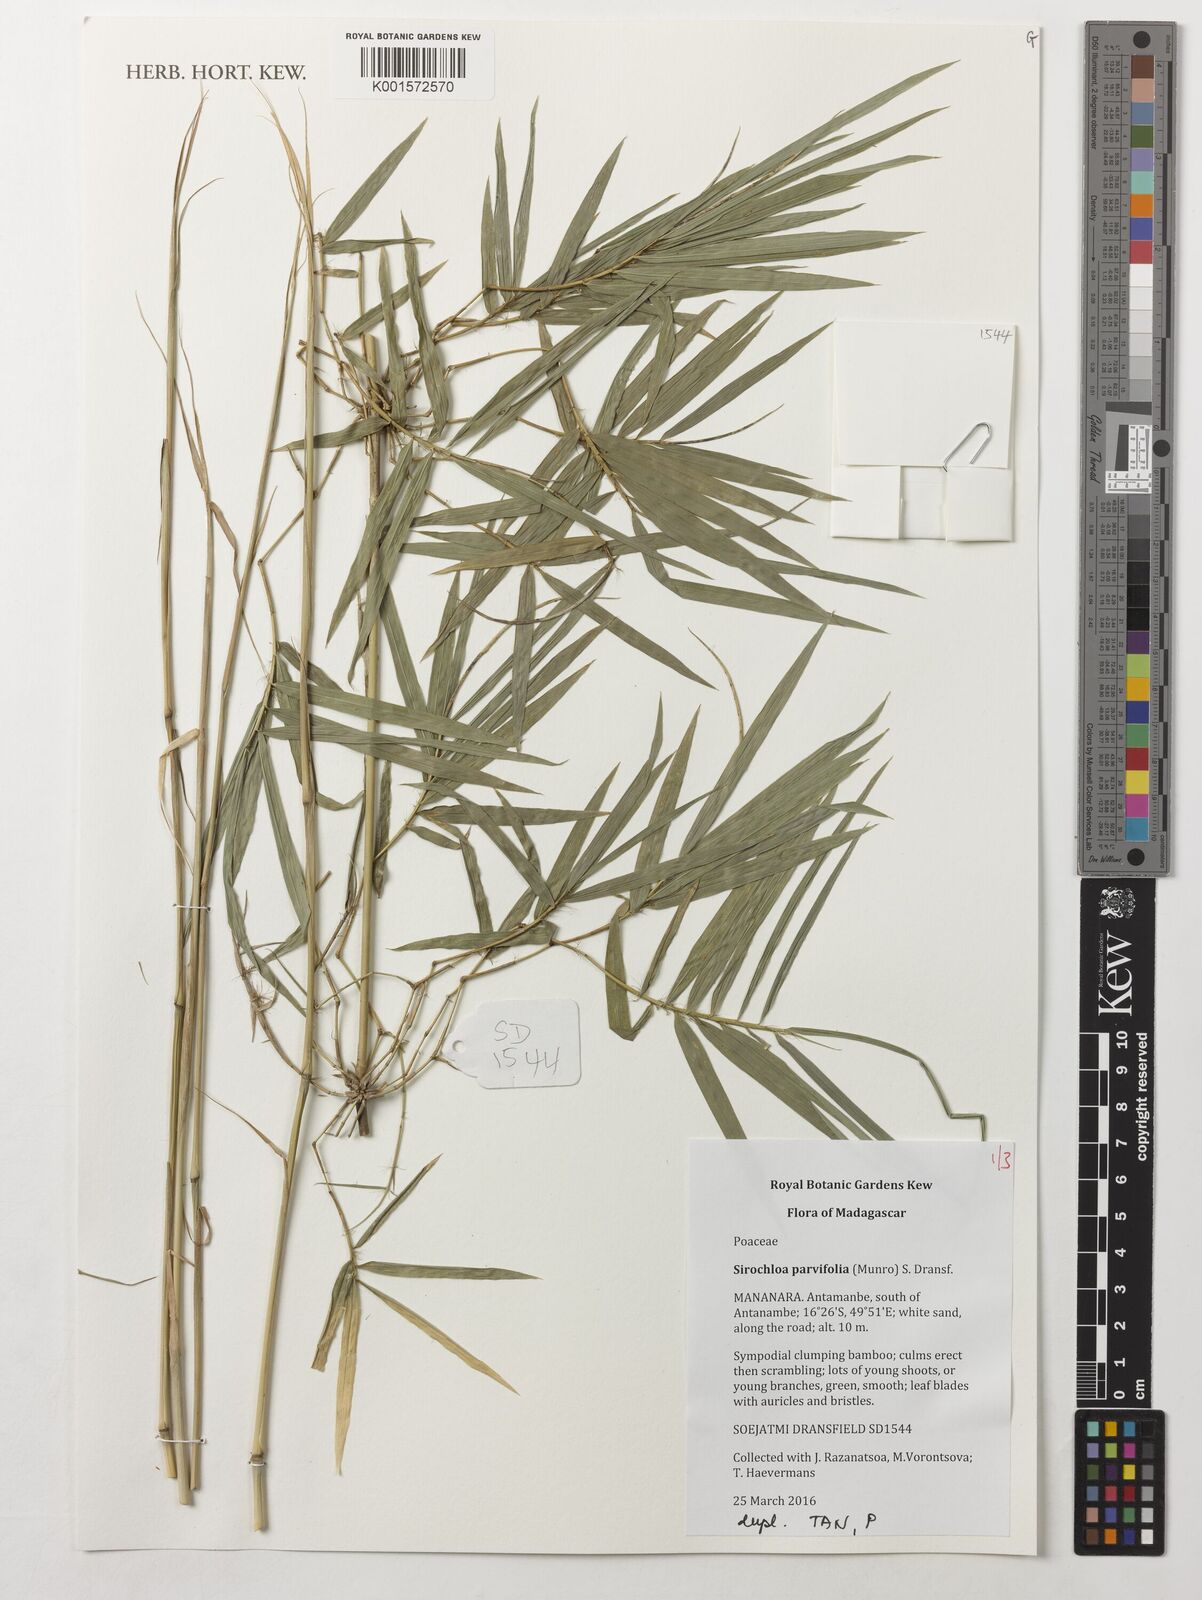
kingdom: Plantae
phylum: Tracheophyta
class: Liliopsida
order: Poales
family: Poaceae
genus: Sirochloa
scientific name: Sirochloa parvifolia
